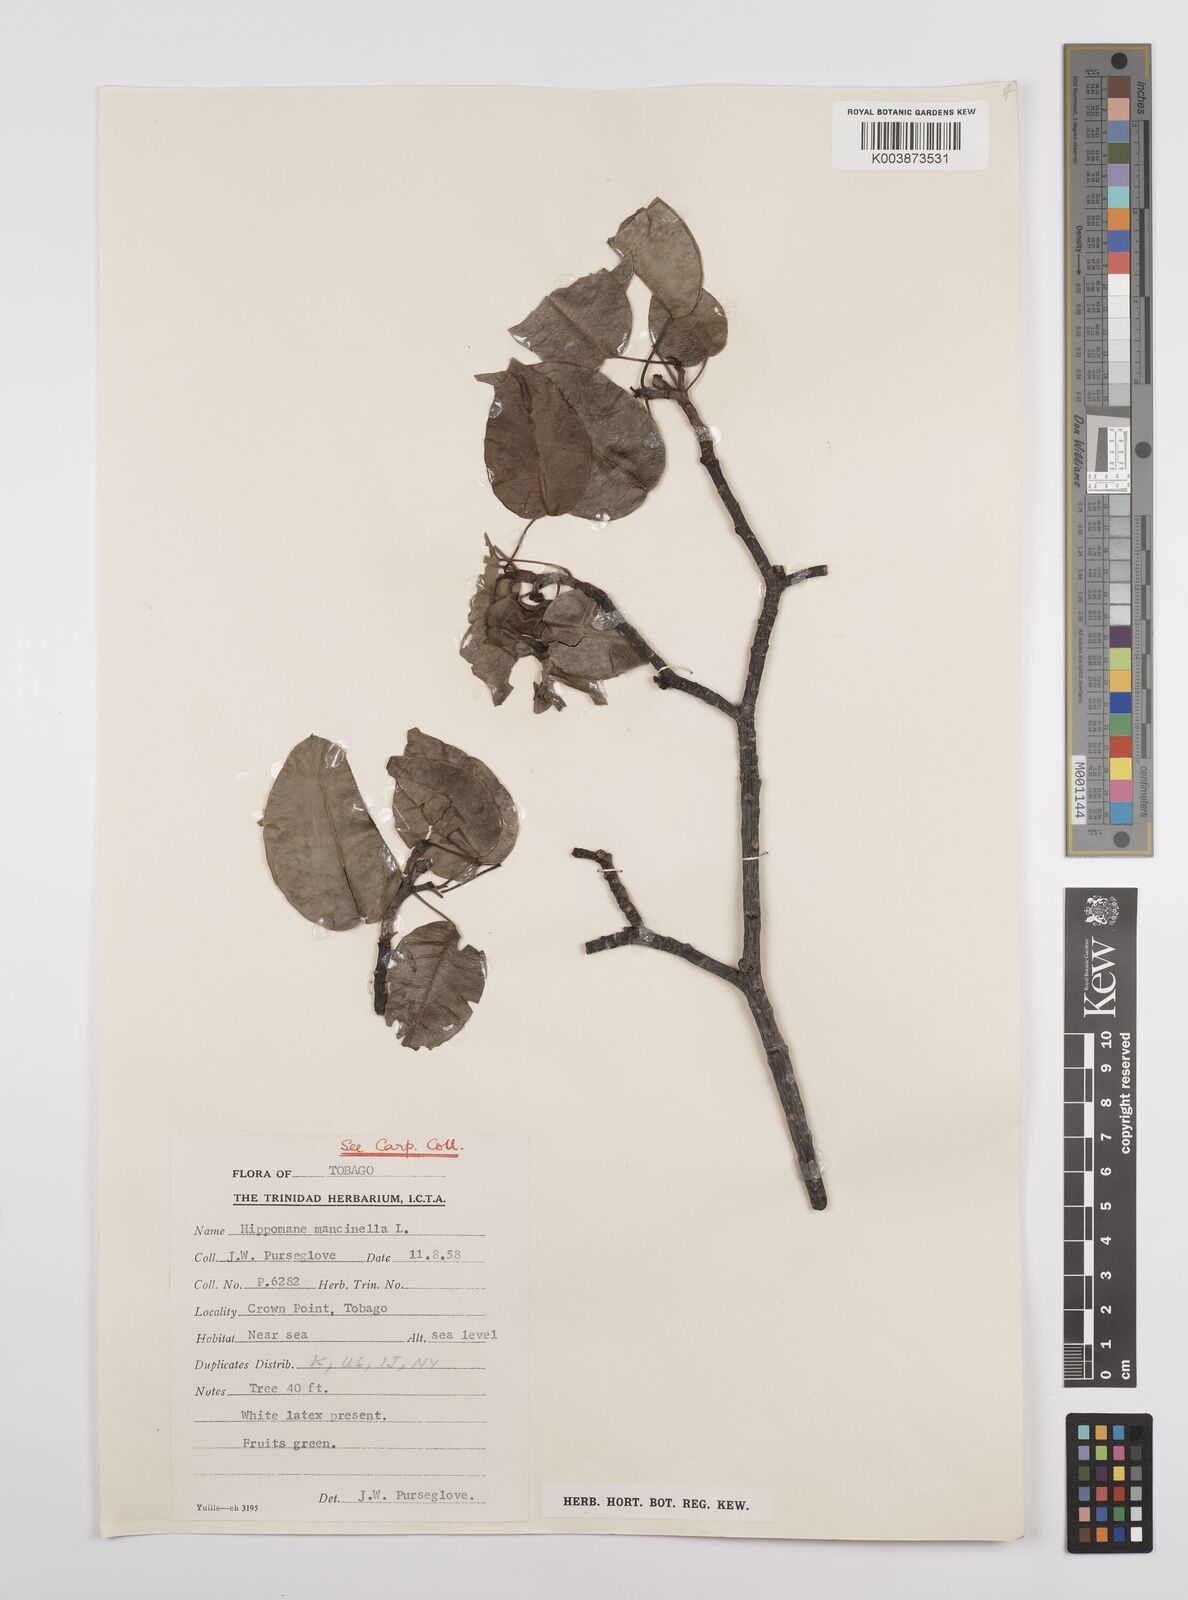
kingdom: Plantae
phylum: Tracheophyta
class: Magnoliopsida
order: Malpighiales
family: Euphorbiaceae
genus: Hippomane
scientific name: Hippomane mancinella
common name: Manchineel
